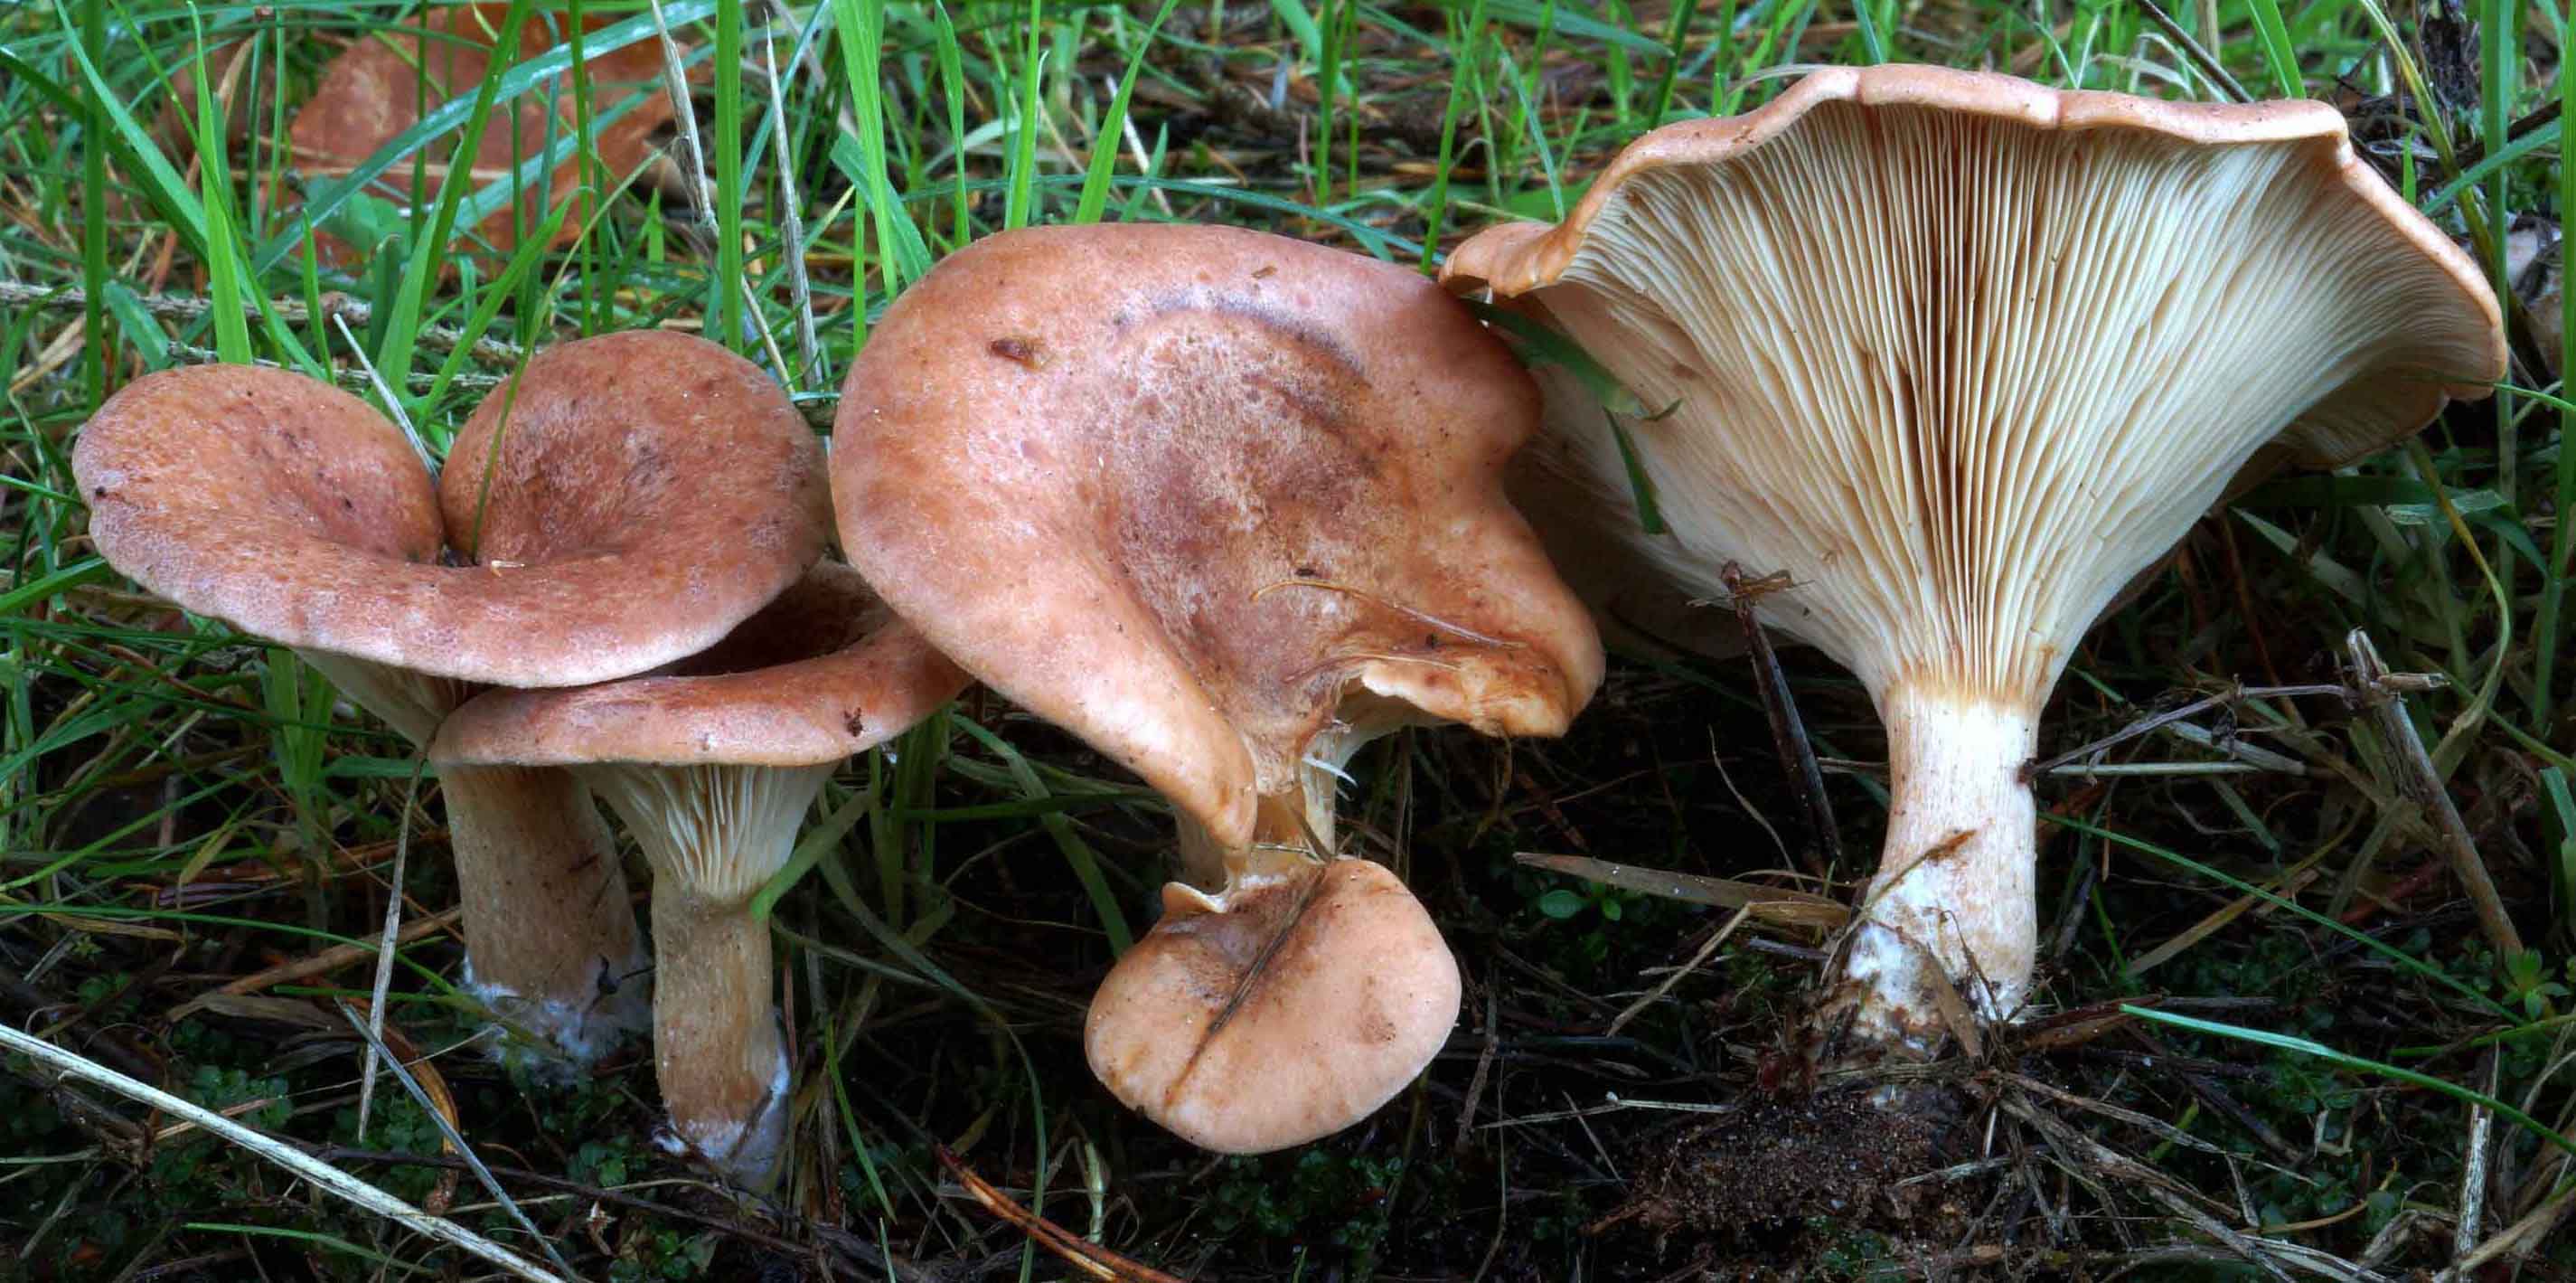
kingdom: Fungi
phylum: Basidiomycota
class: Agaricomycetes
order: Agaricales
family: Tricholomataceae
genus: Paralepista
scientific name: Paralepista flaccida
